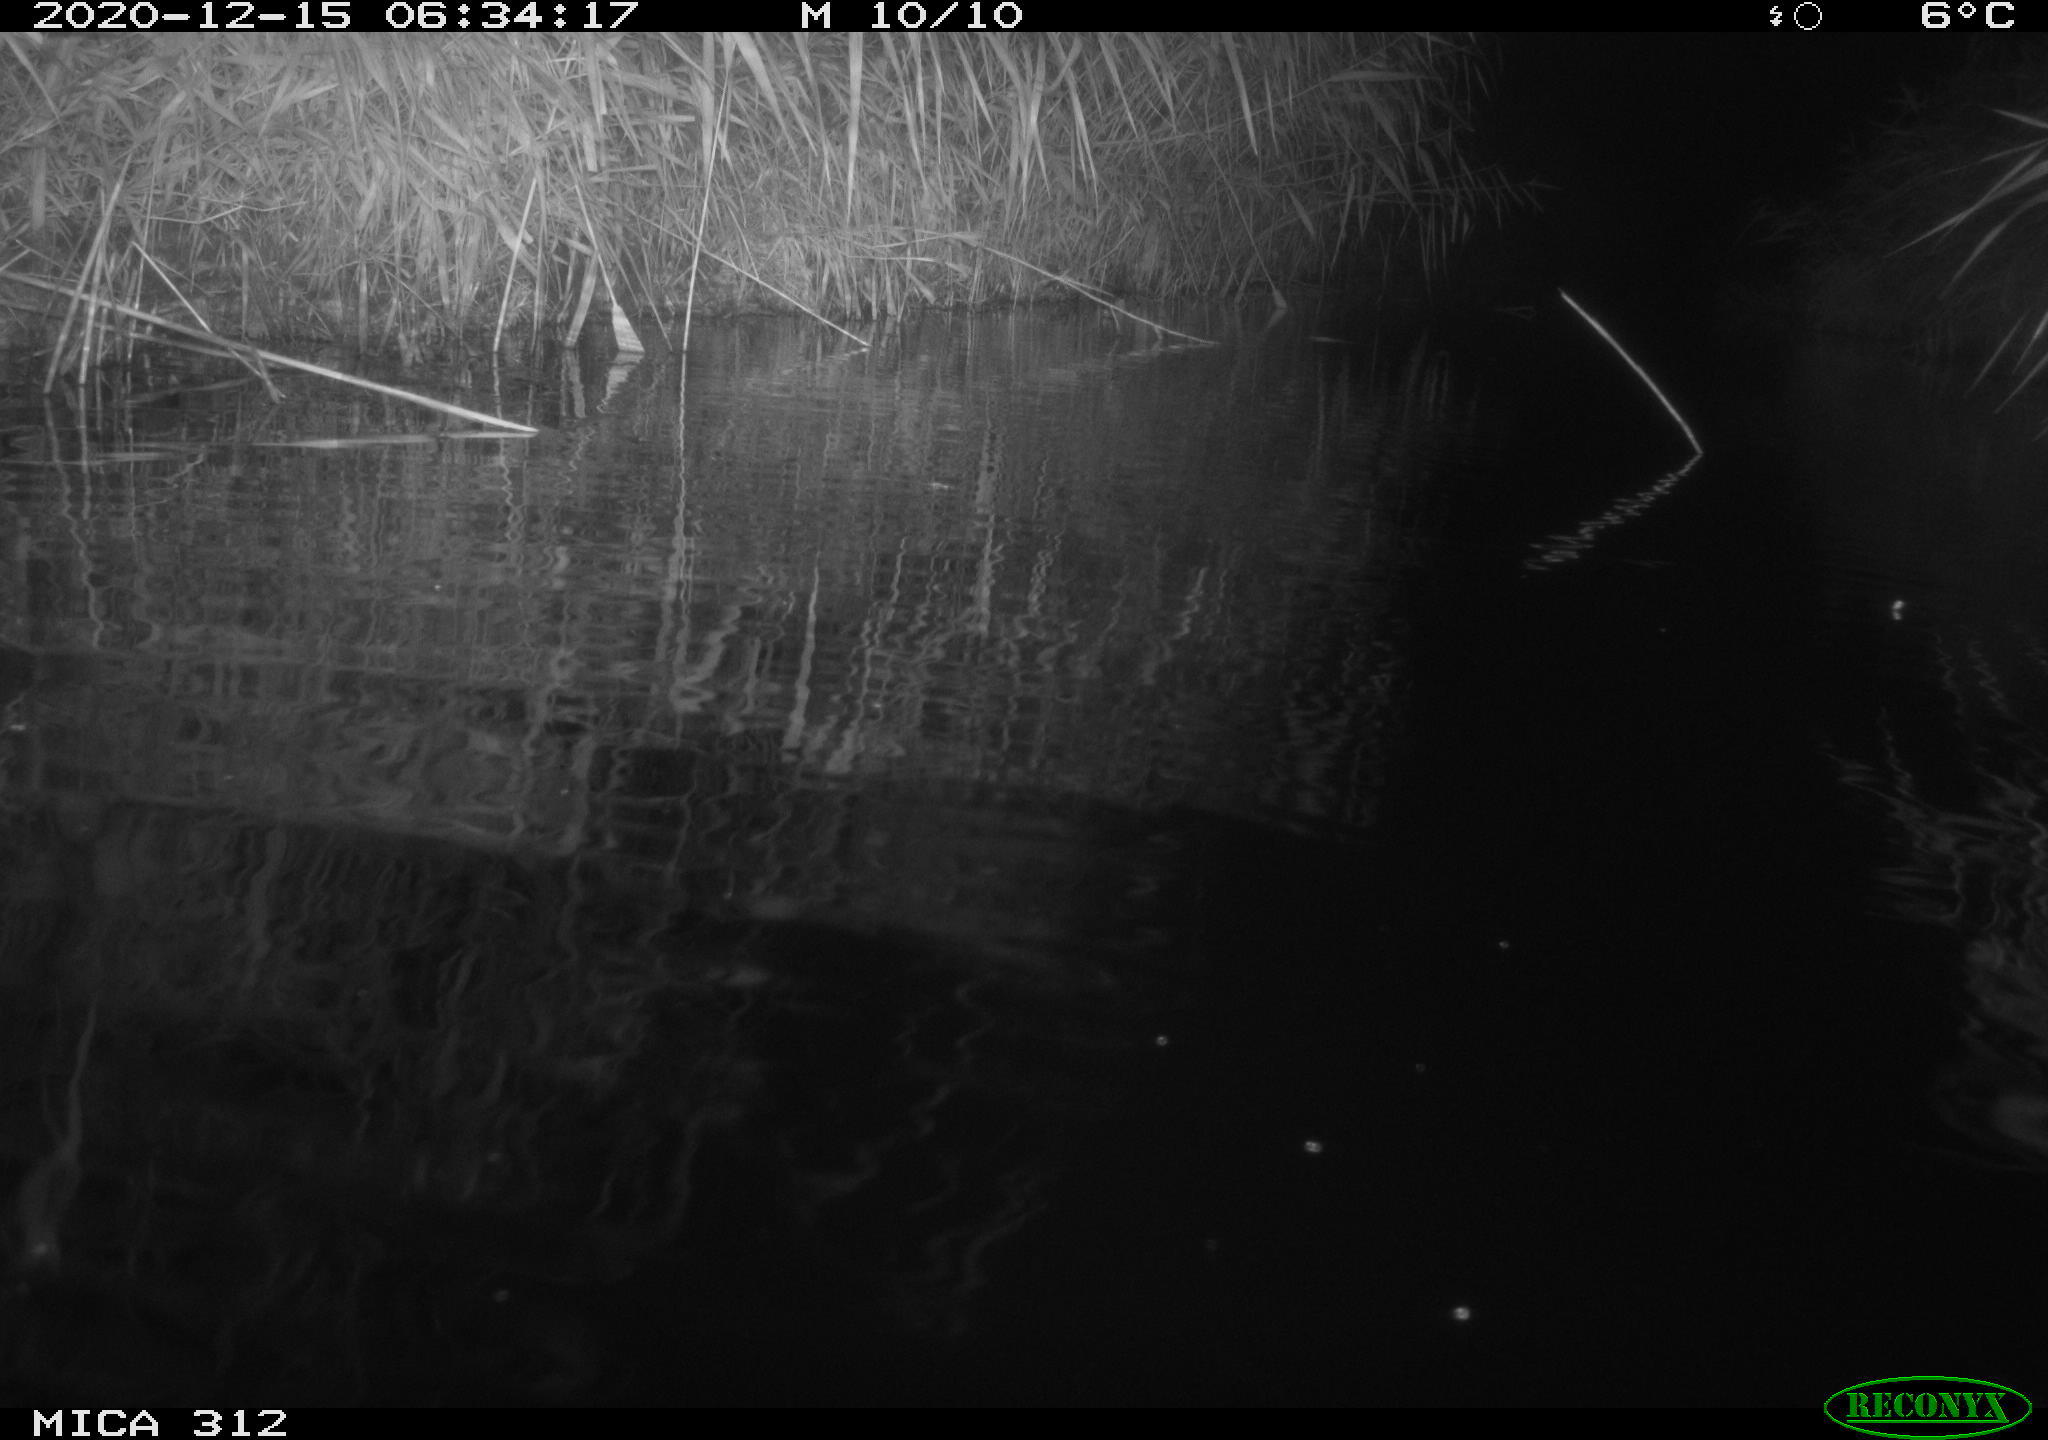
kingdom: Animalia
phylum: Chordata
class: Mammalia
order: Rodentia
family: Muridae
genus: Rattus
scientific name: Rattus norvegicus
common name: Brown rat
